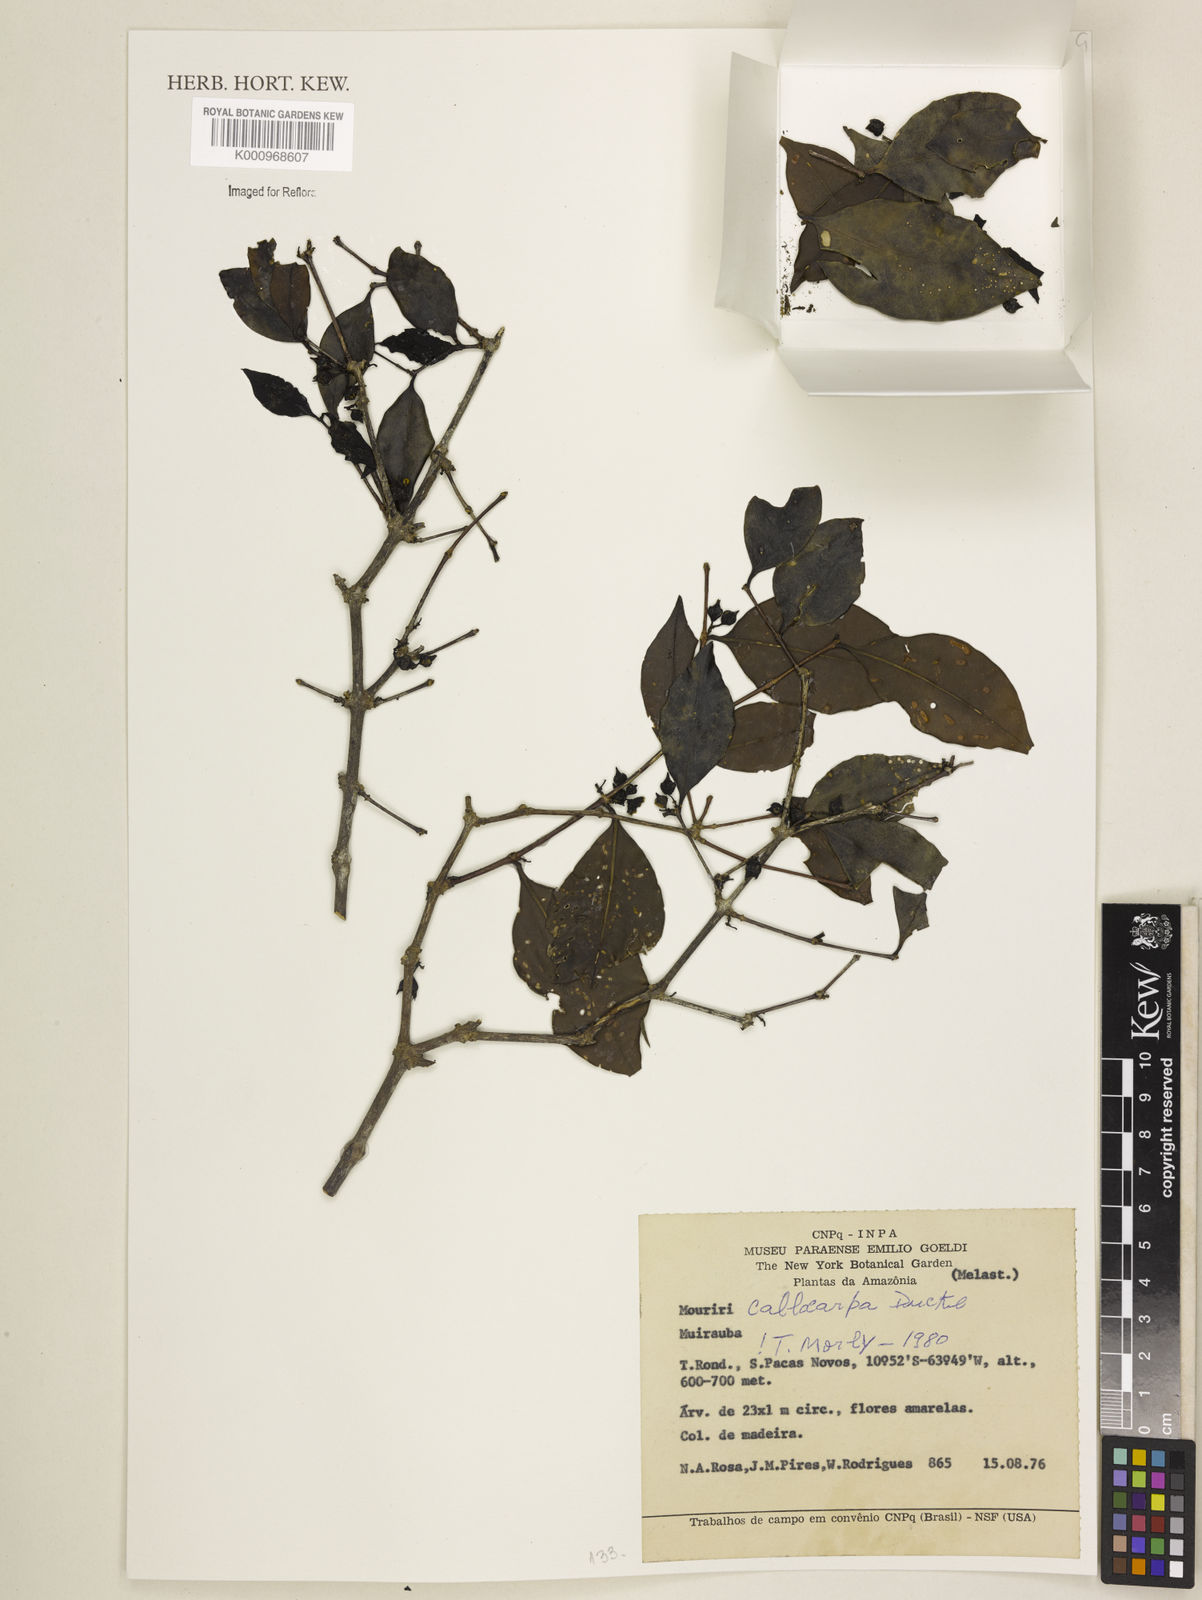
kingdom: Plantae
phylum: Tracheophyta
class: Magnoliopsida
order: Myrtales
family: Melastomataceae
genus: Mouriri
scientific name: Mouriri collocarpa
